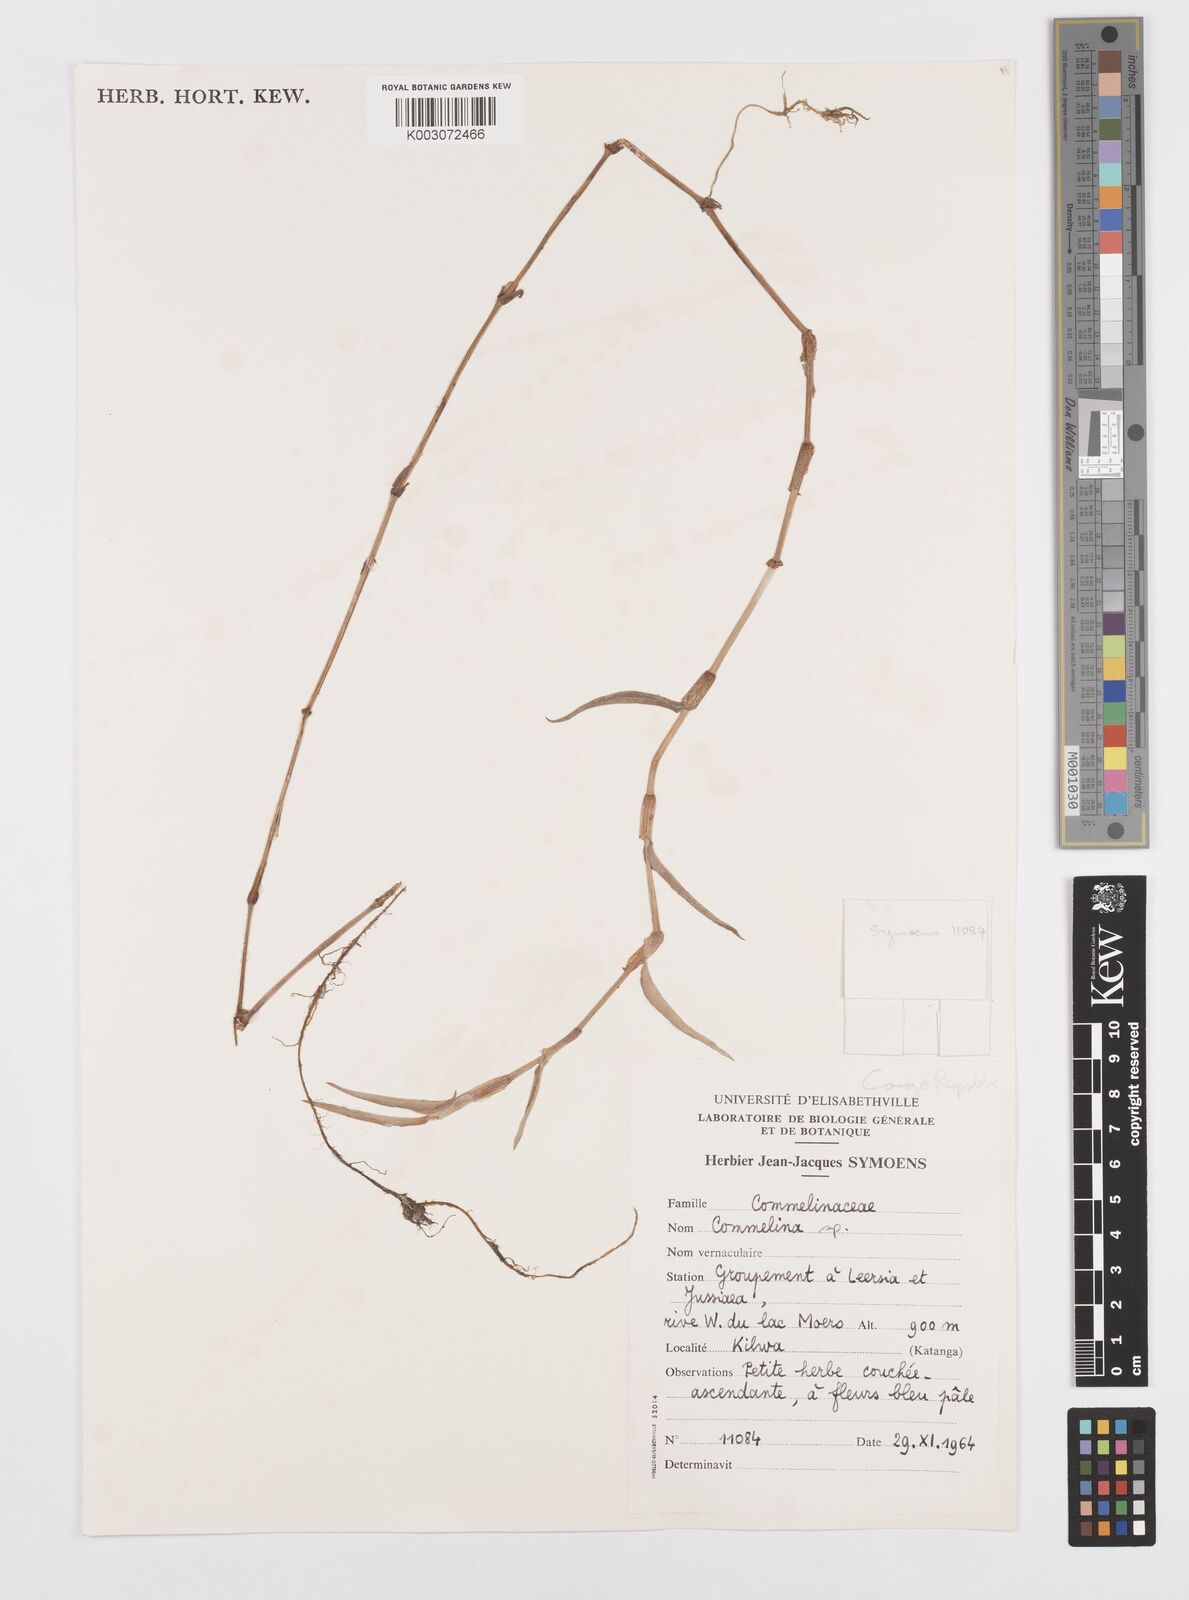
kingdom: Plantae
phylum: Tracheophyta
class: Liliopsida
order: Commelinales
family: Commelinaceae
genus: Commelina
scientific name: Commelina
